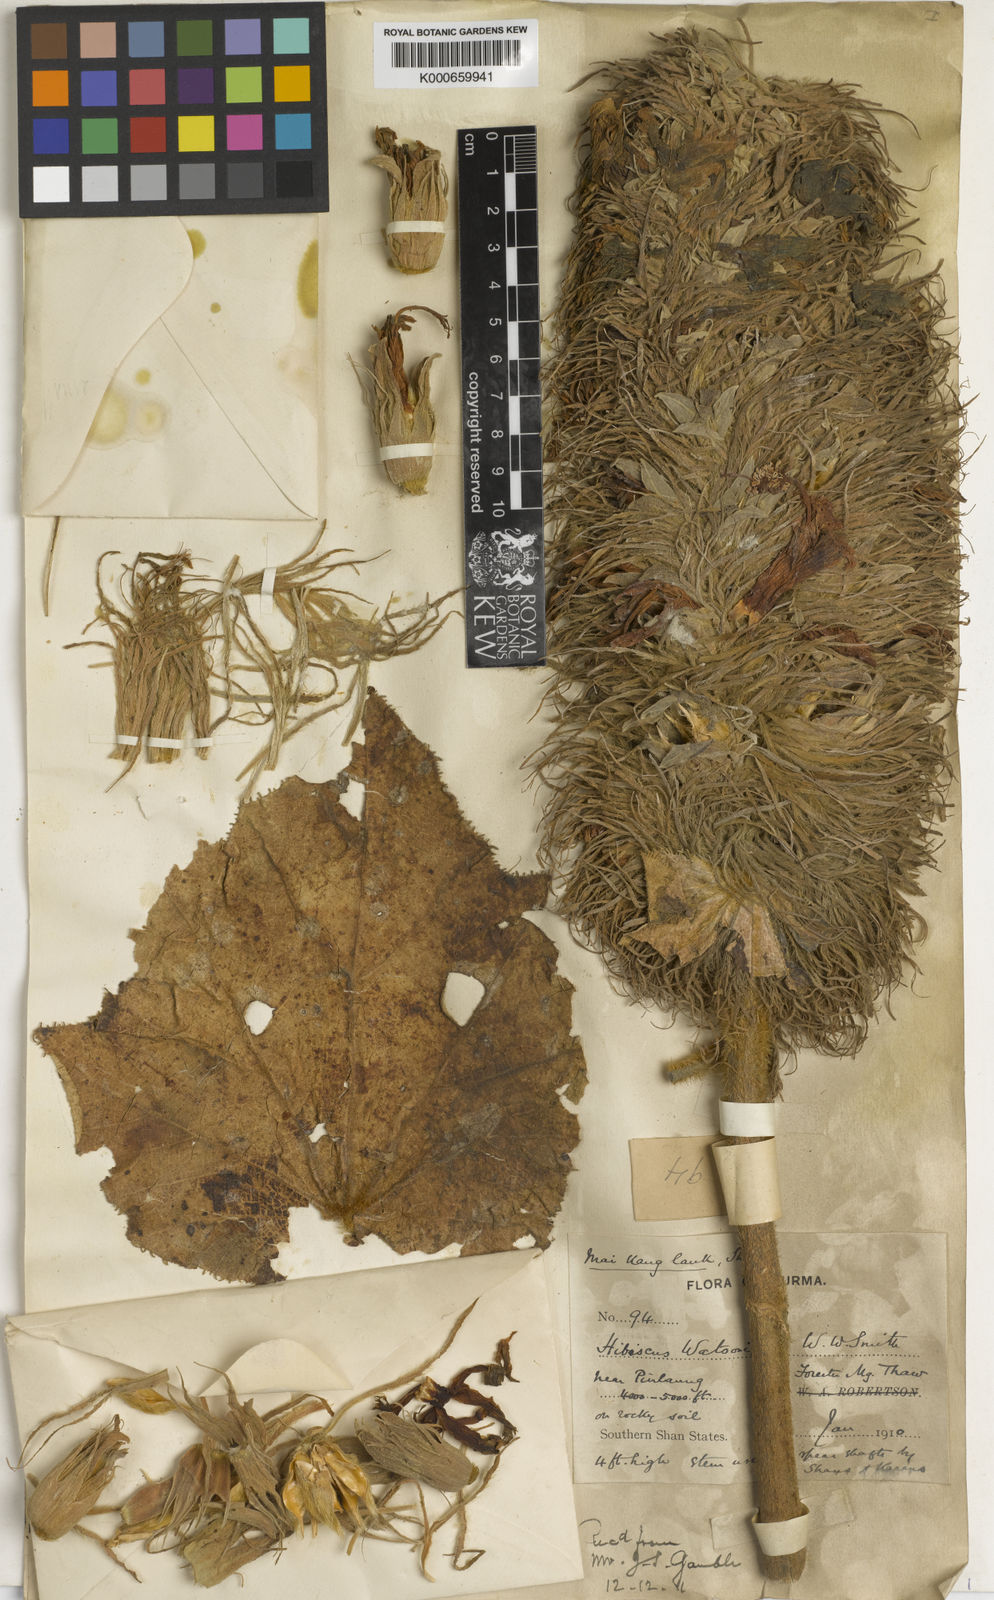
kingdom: Plantae
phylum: Tracheophyta
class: Magnoliopsida
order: Malvales
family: Malvaceae
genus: Abelmoschus
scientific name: Abelmoschus
